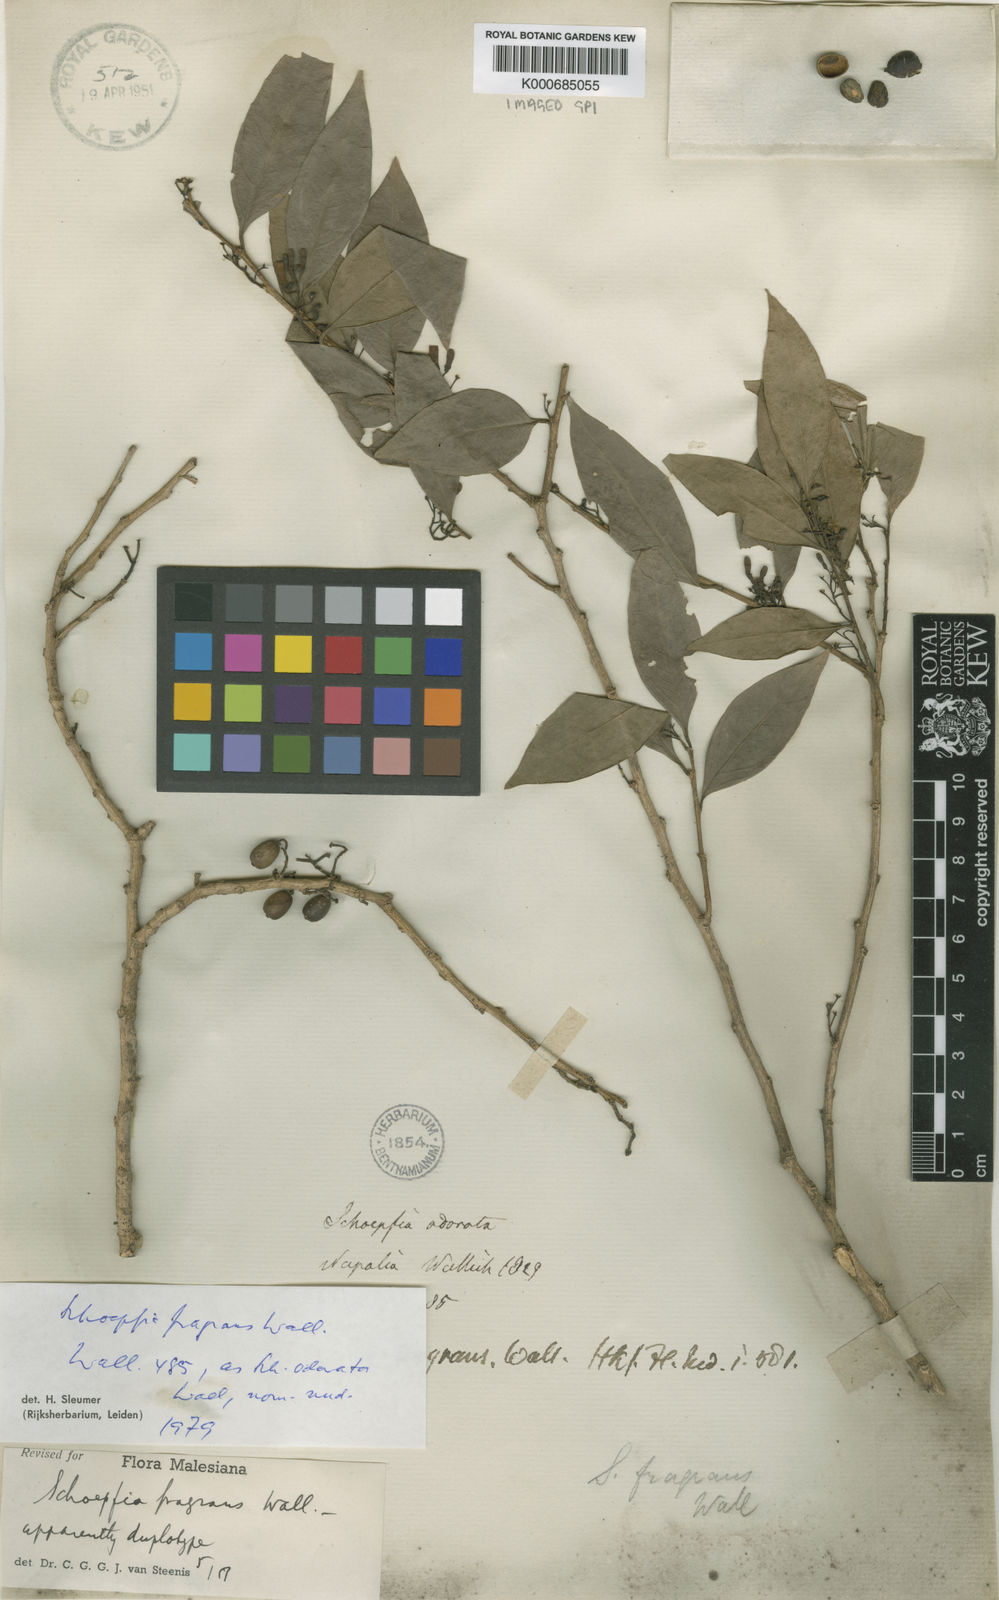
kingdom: Plantae
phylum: Tracheophyta
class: Magnoliopsida
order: Santalales
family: Schoepfiaceae
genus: Schoepfia
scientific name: Schoepfia fragrans
